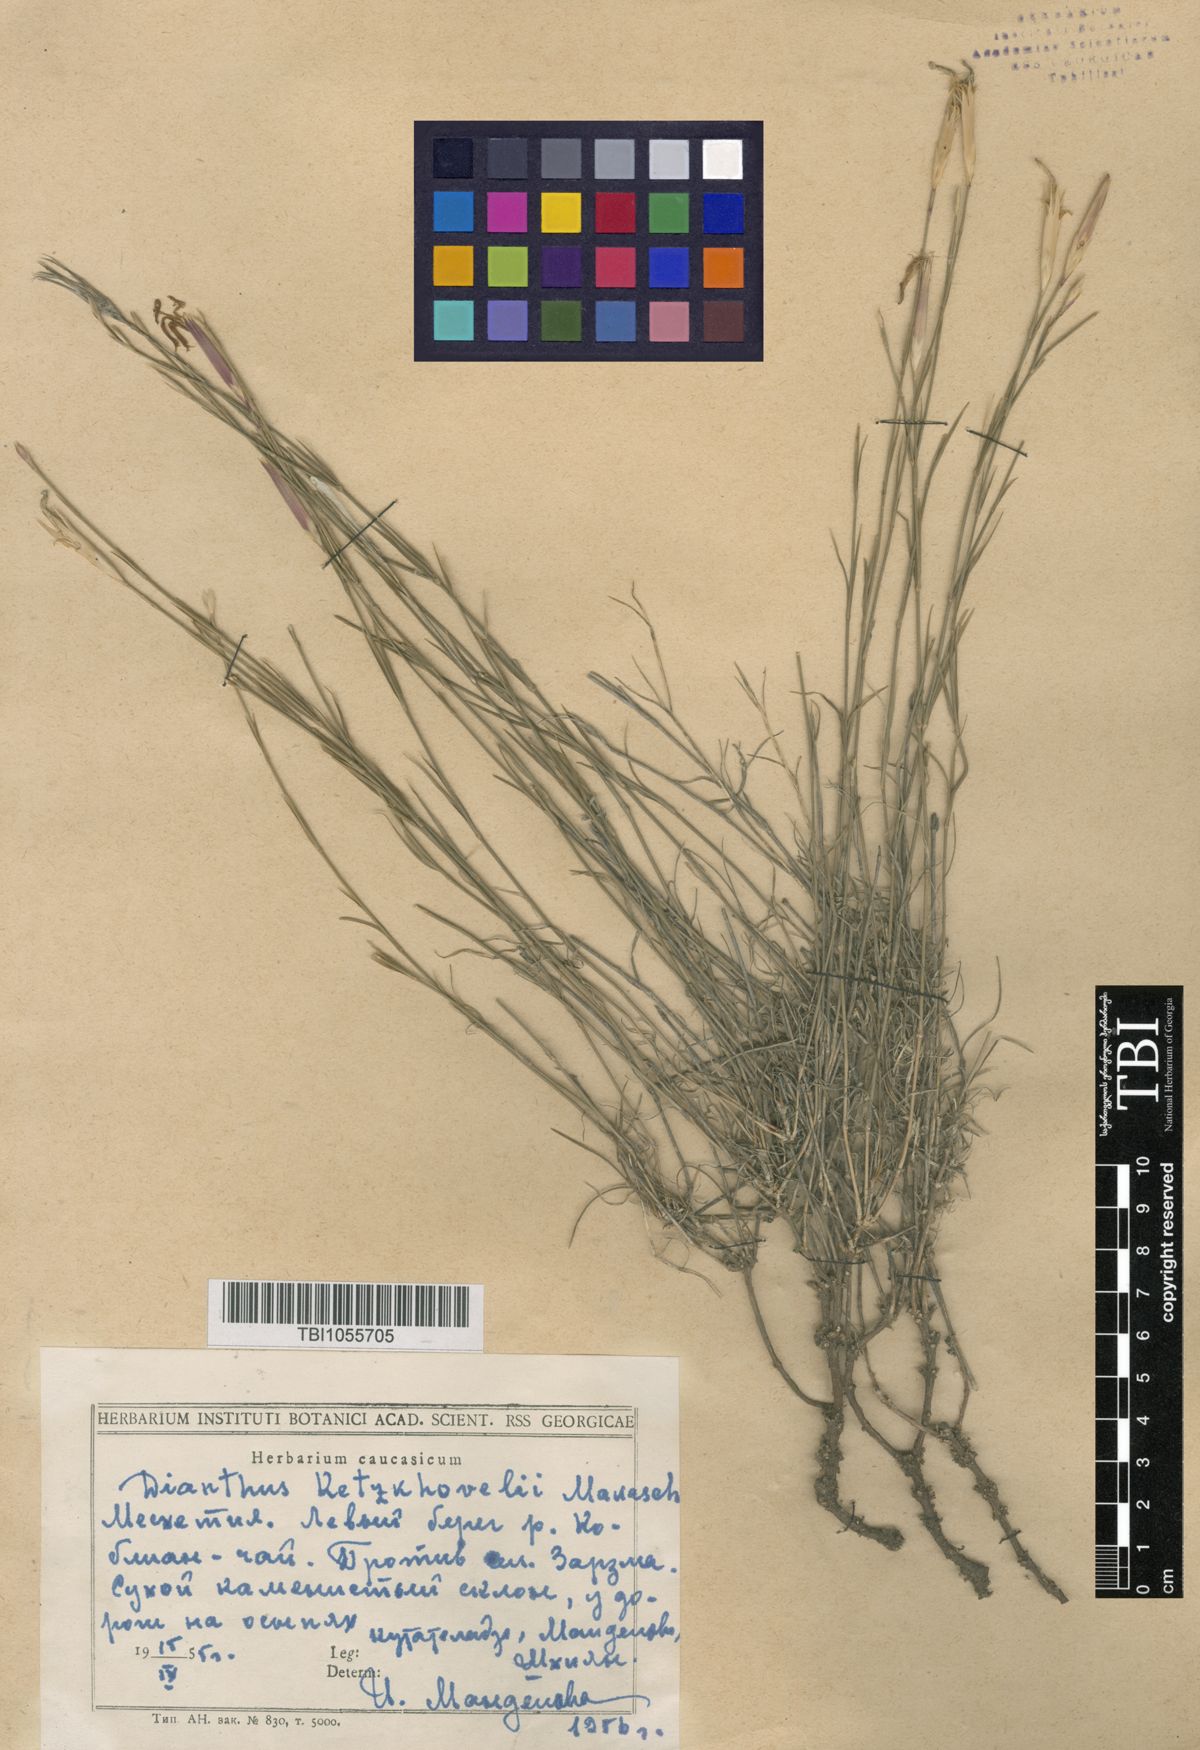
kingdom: Plantae
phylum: Tracheophyta
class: Magnoliopsida
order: Caryophyllales
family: Caryophyllaceae
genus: Dianthus
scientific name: Dianthus orientalis
